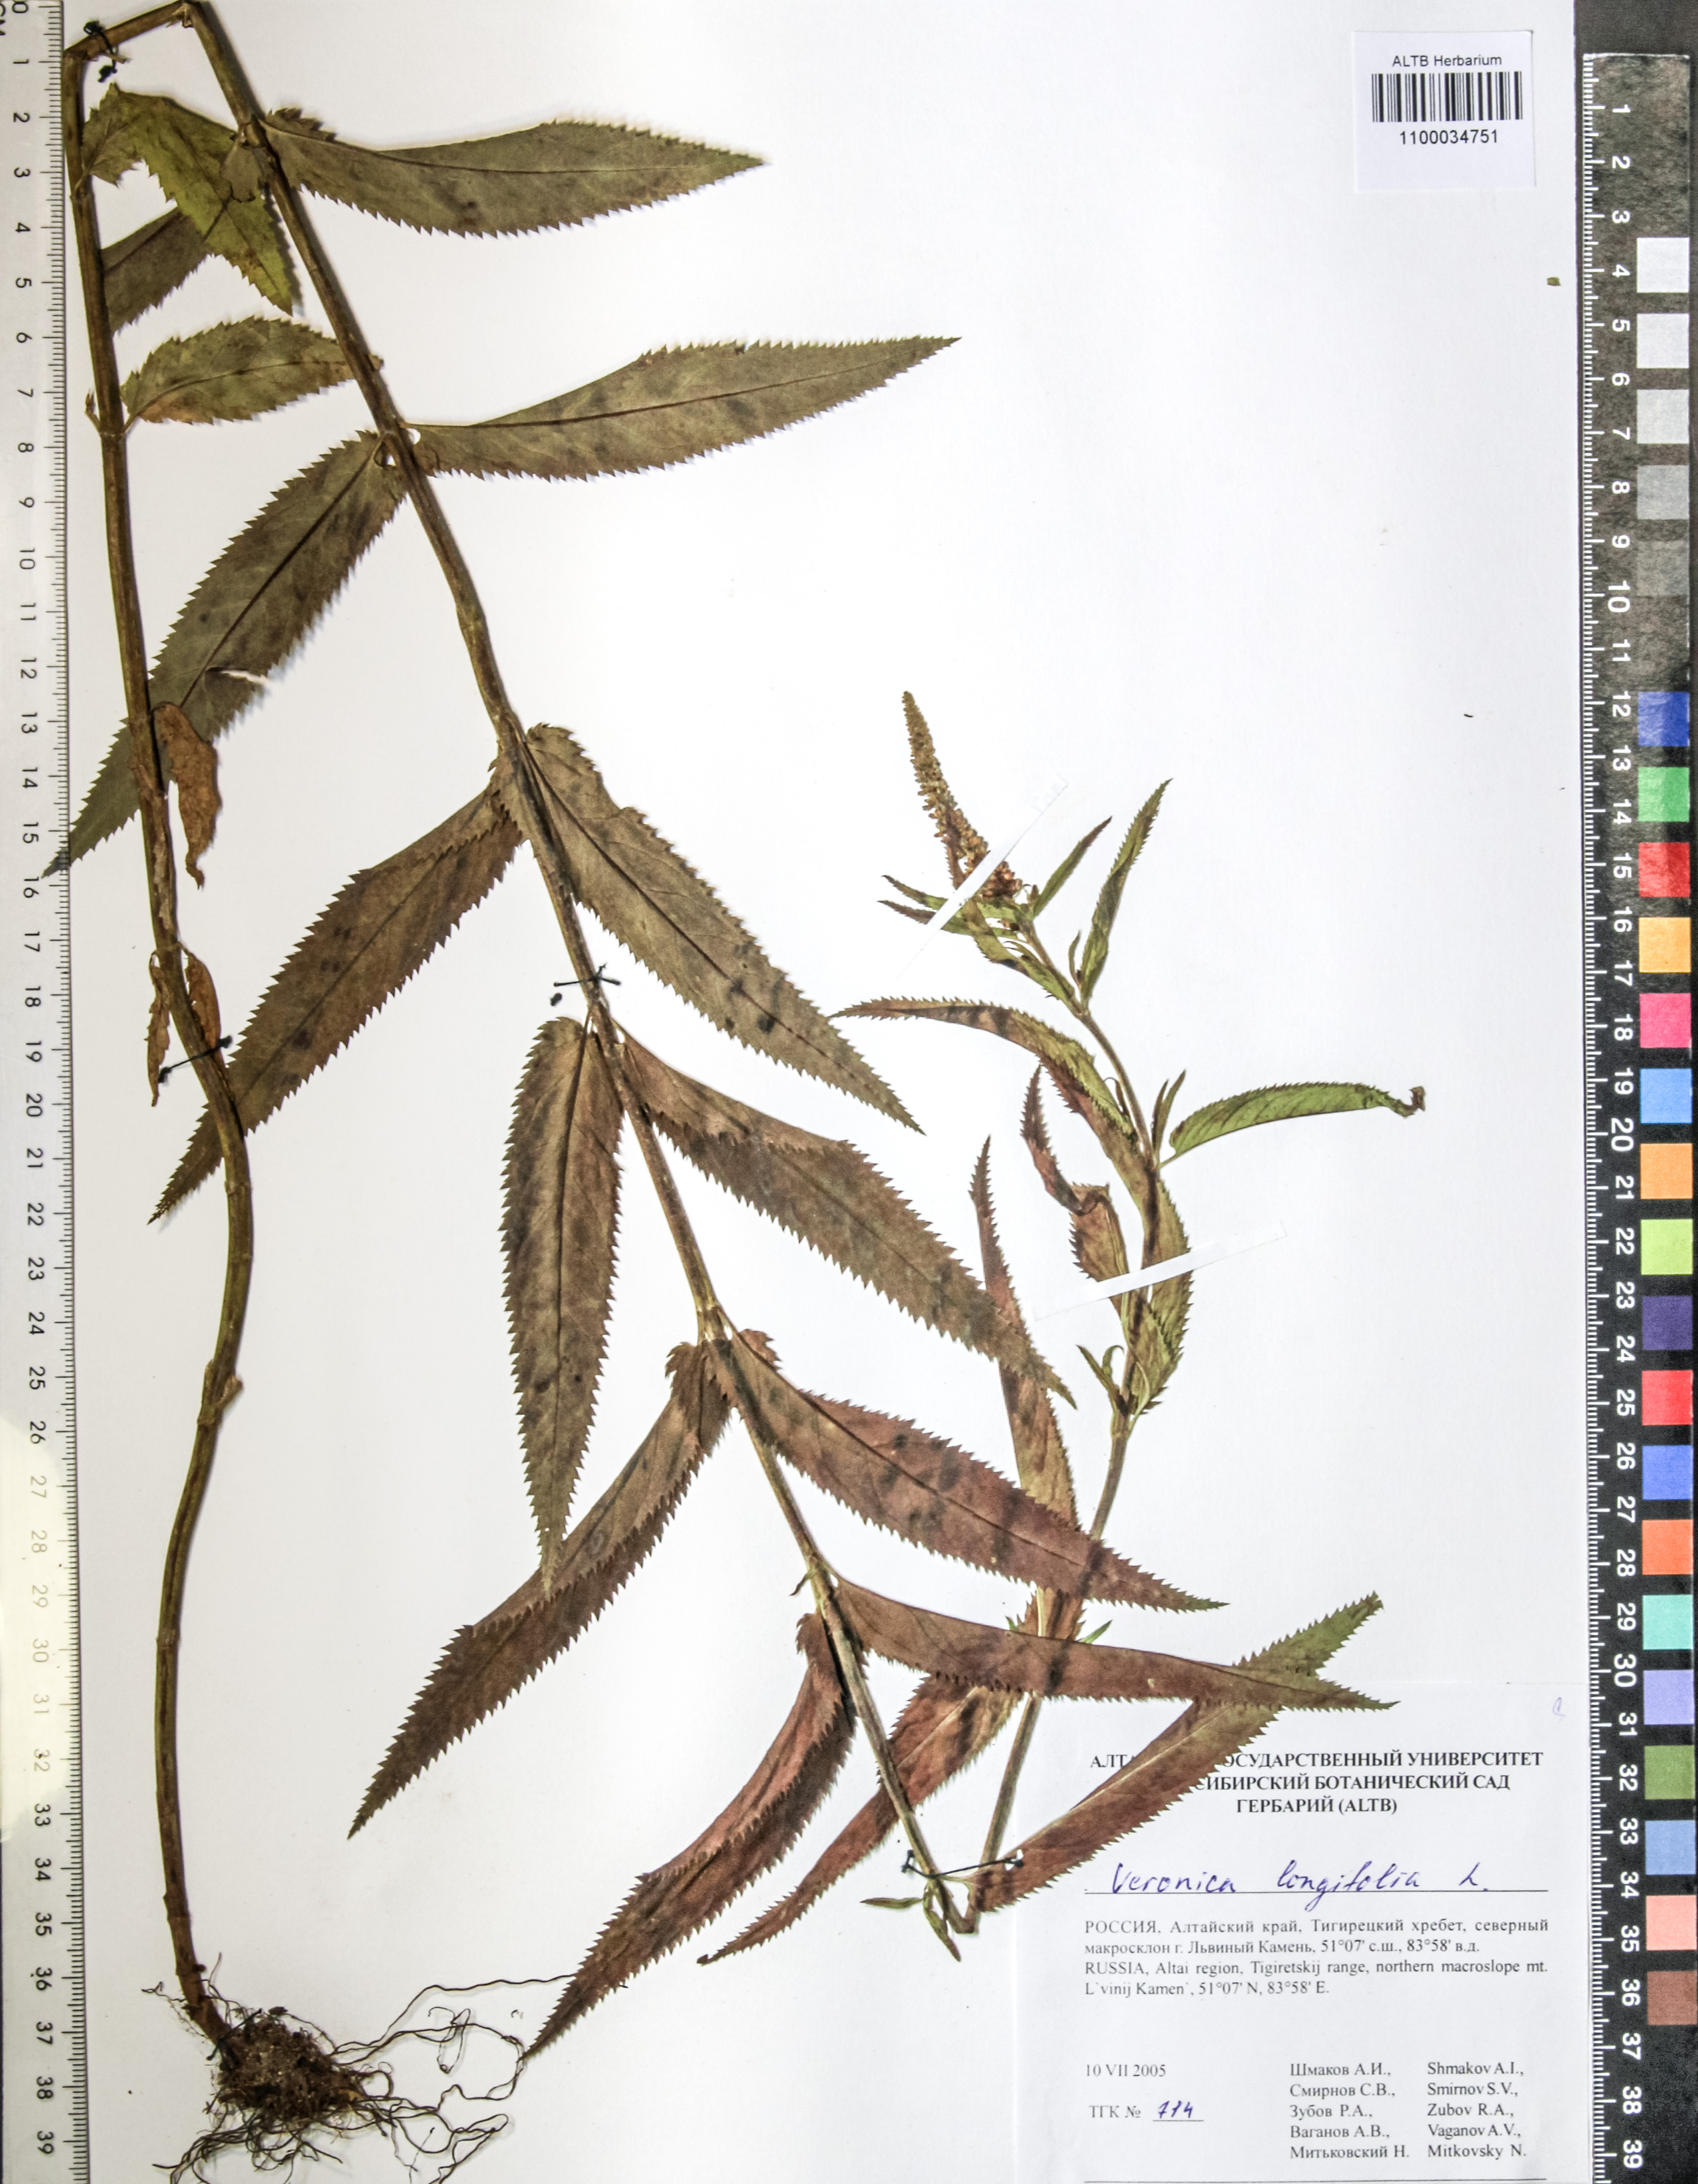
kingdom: Plantae
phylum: Tracheophyta
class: Magnoliopsida
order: Lamiales
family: Plantaginaceae
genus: Veronica
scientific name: Veronica longifolia
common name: Garden speedwell
